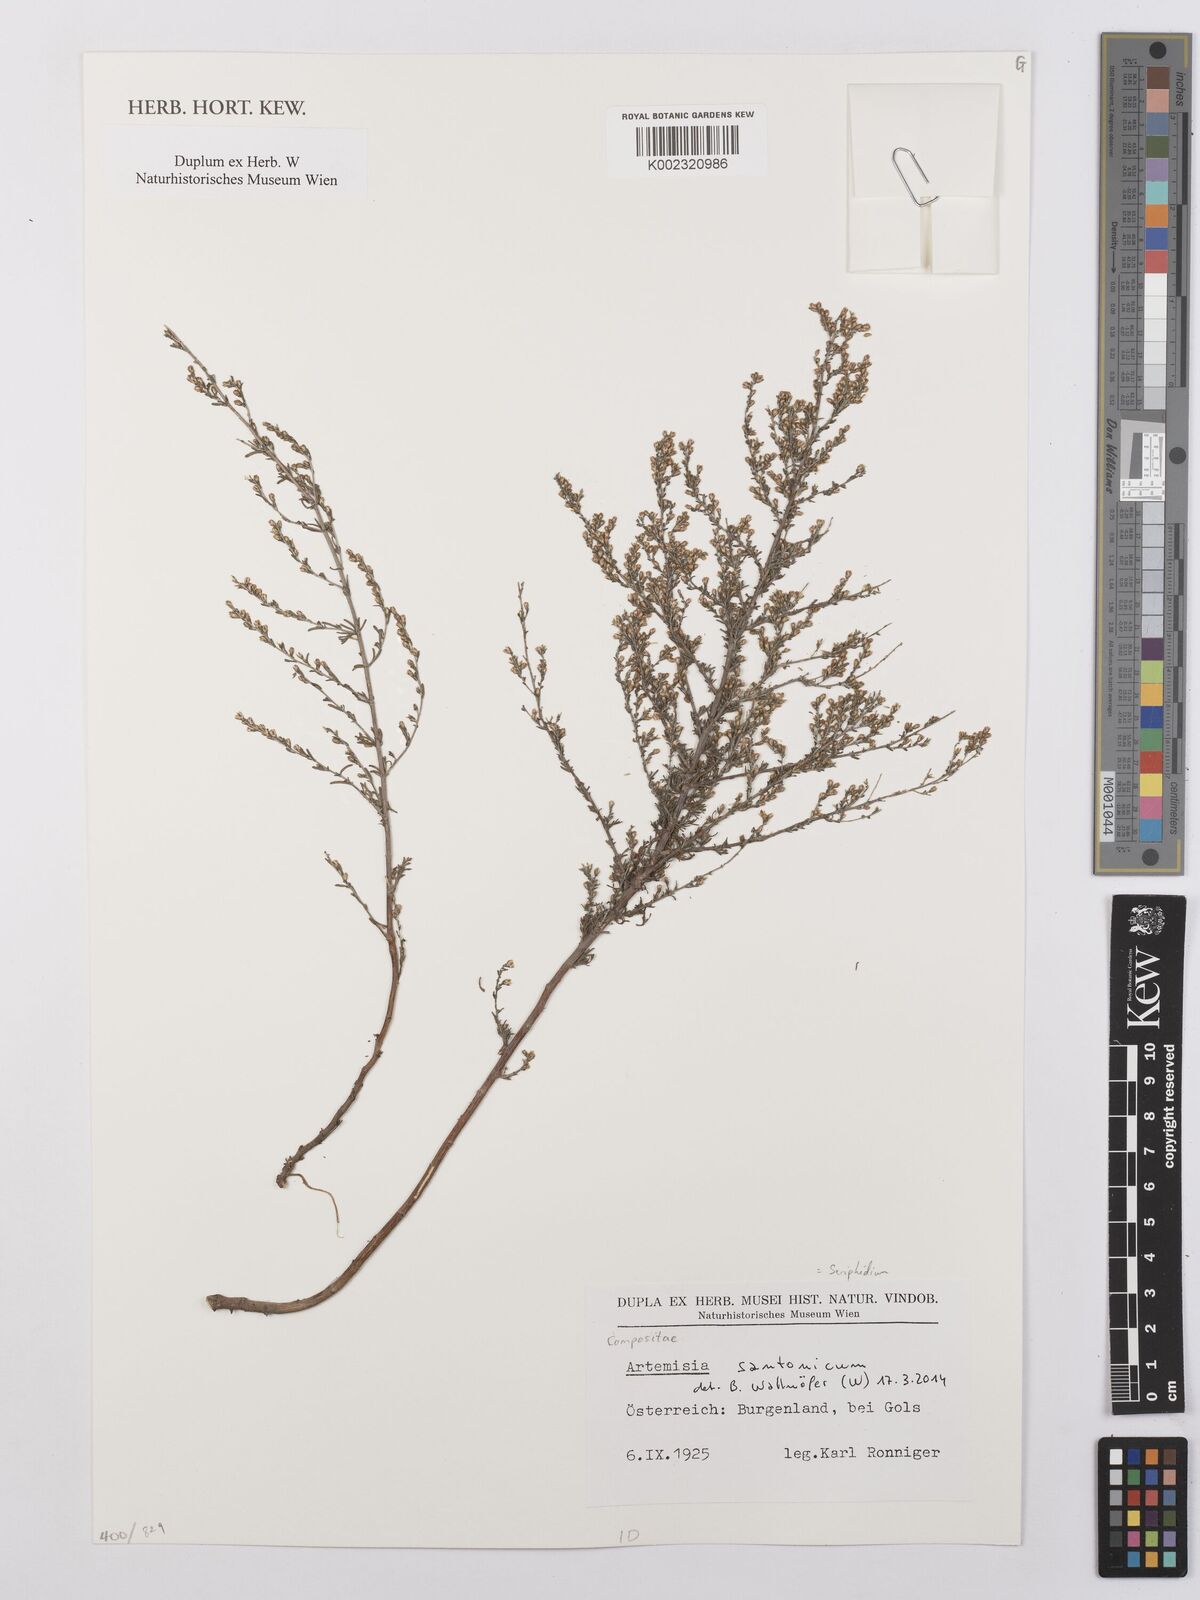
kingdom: Plantae
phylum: Tracheophyta
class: Magnoliopsida
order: Asterales
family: Asteraceae
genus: Artemisia
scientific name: Artemisia santonicum
